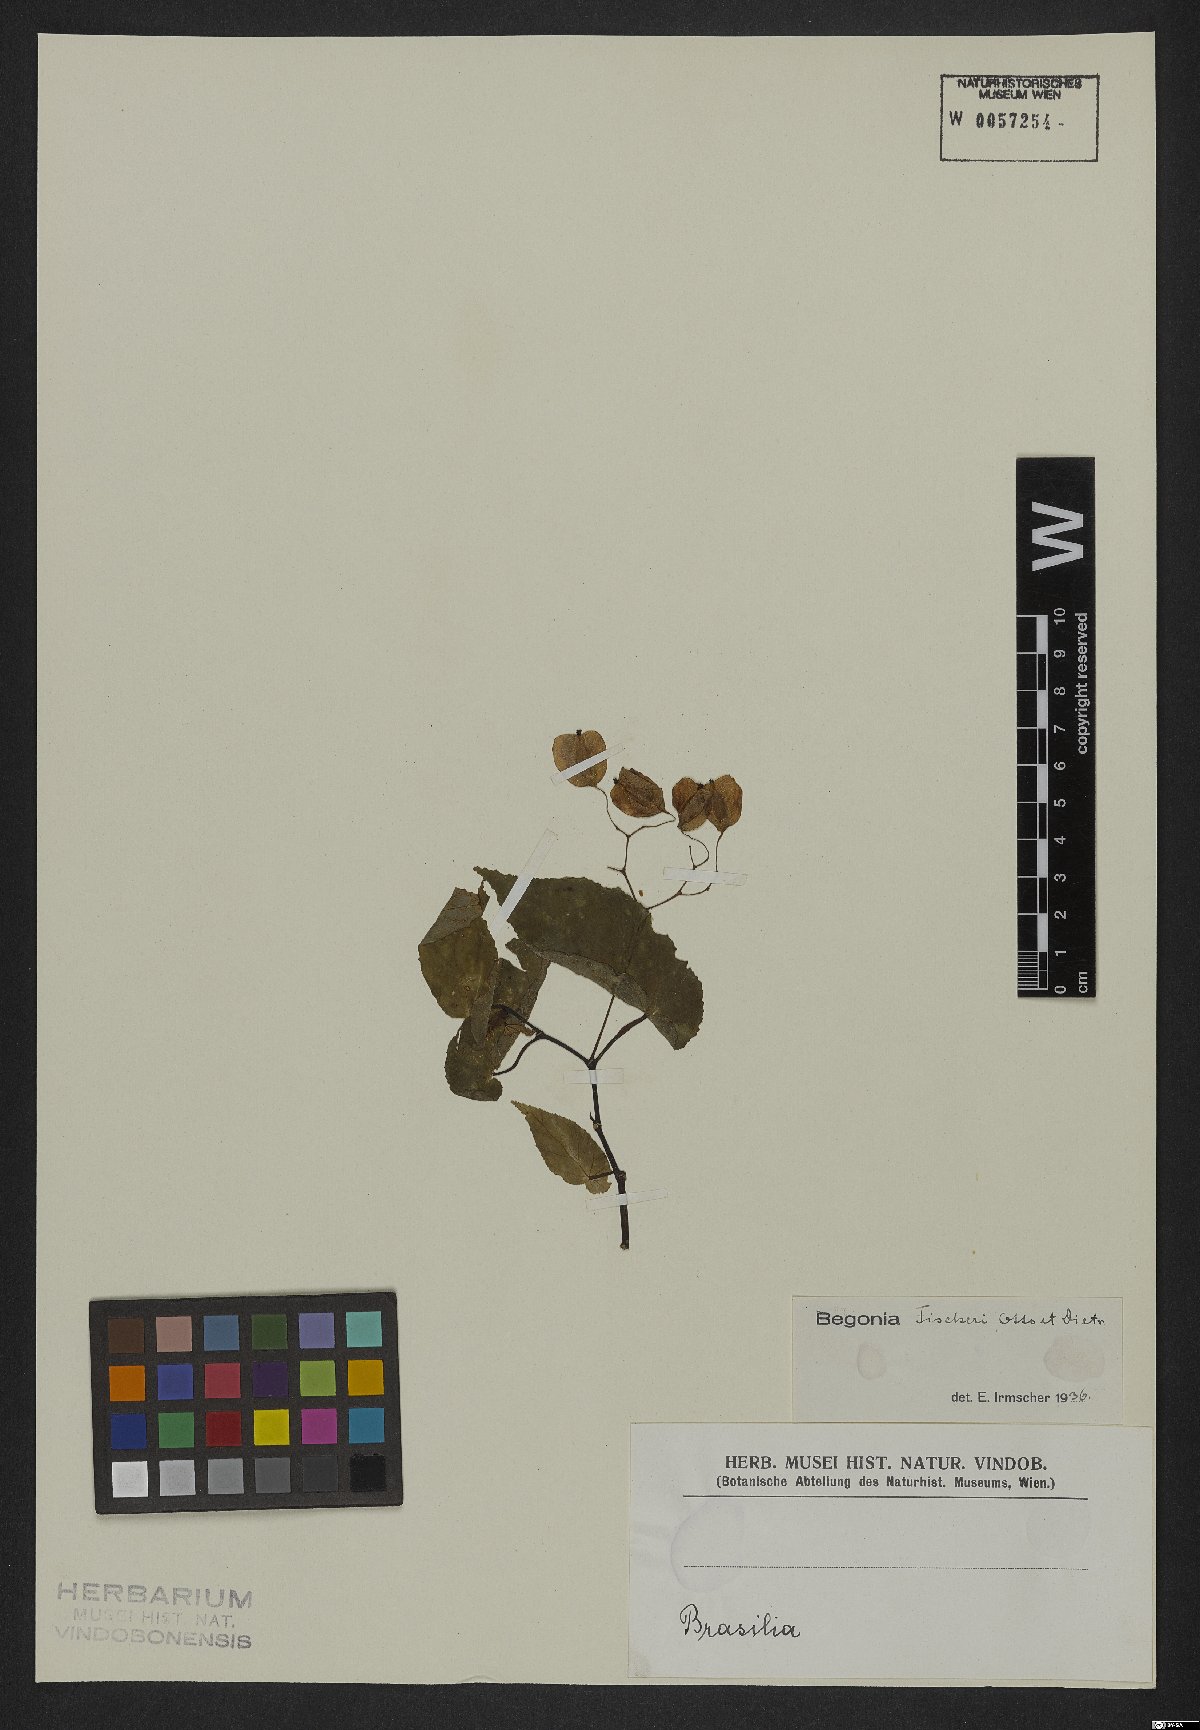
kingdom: Plantae
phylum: Tracheophyta
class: Magnoliopsida
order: Cucurbitales
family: Begoniaceae
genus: Begonia
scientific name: Begonia fischeri
